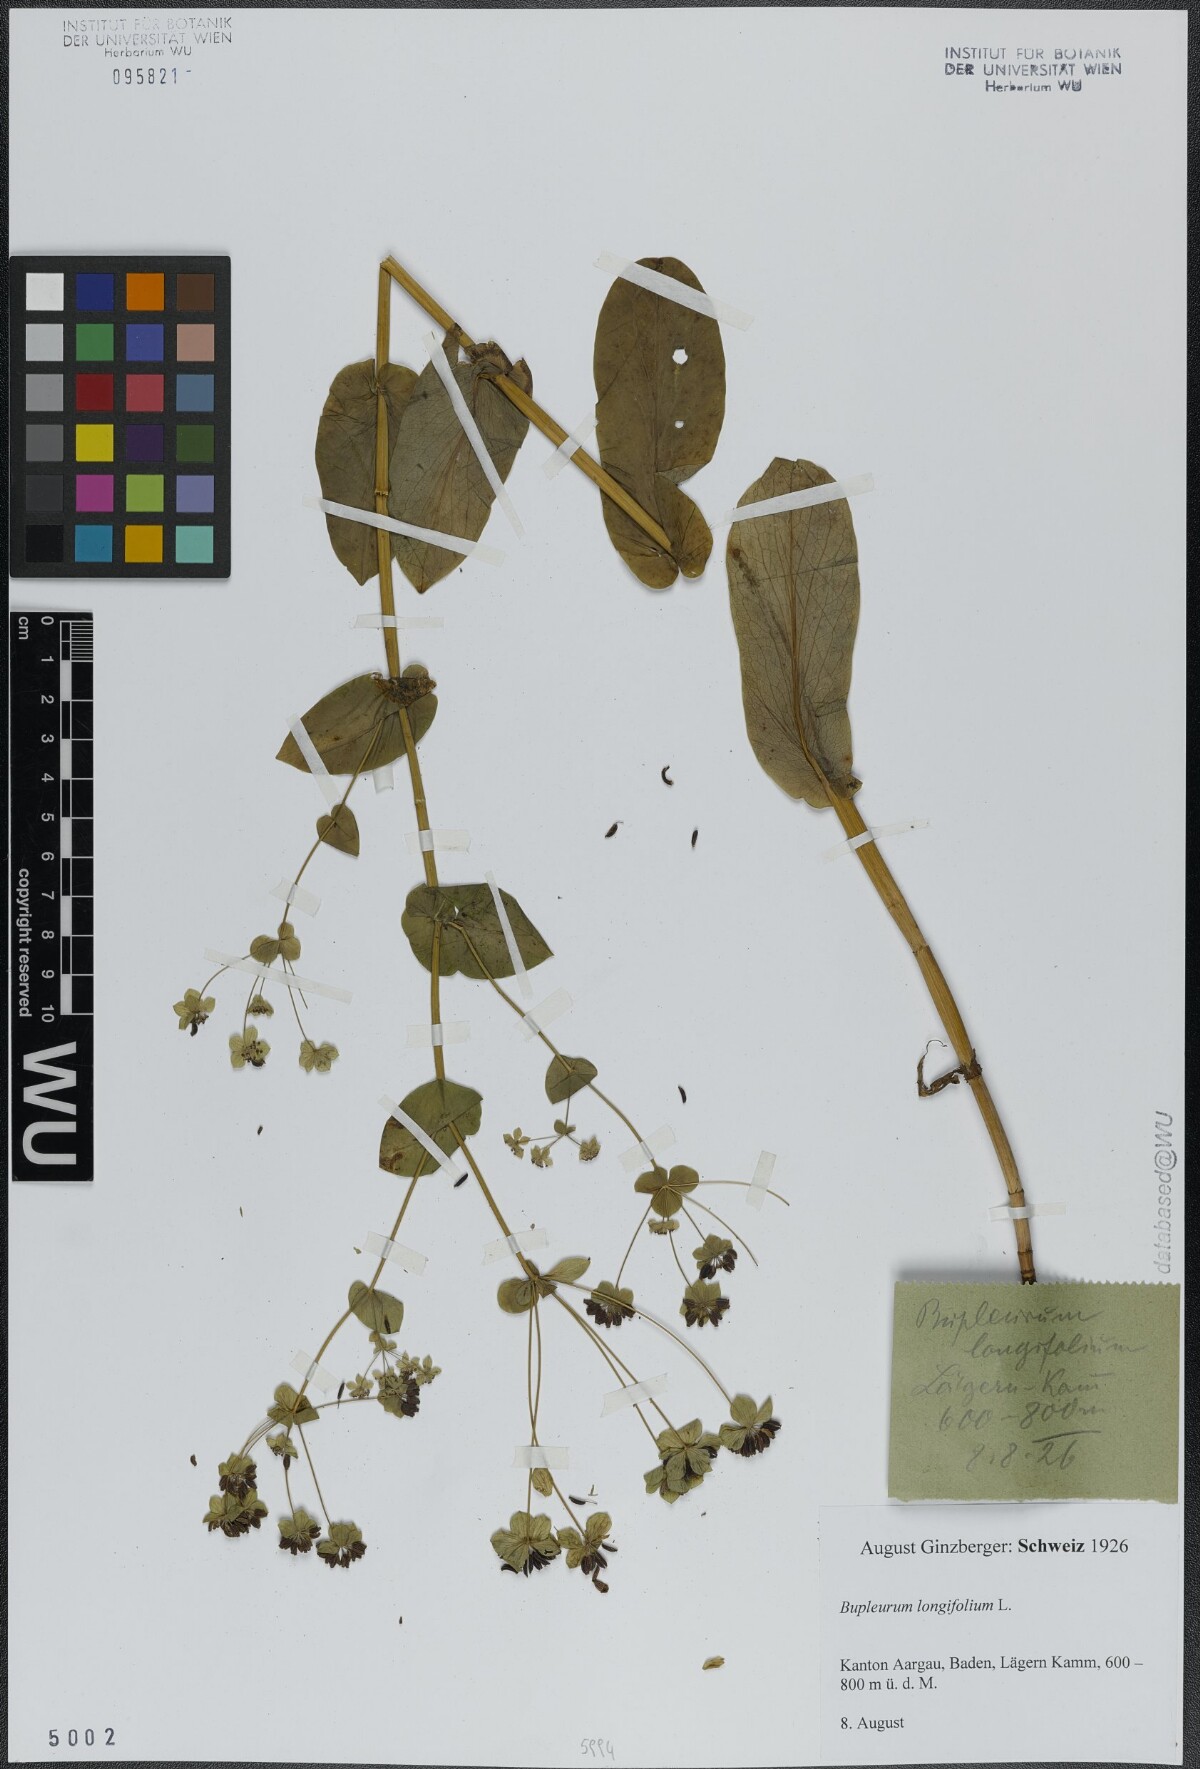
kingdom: Plantae
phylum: Tracheophyta
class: Magnoliopsida
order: Apiales
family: Apiaceae
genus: Bupleurum
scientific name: Bupleurum longifolium
